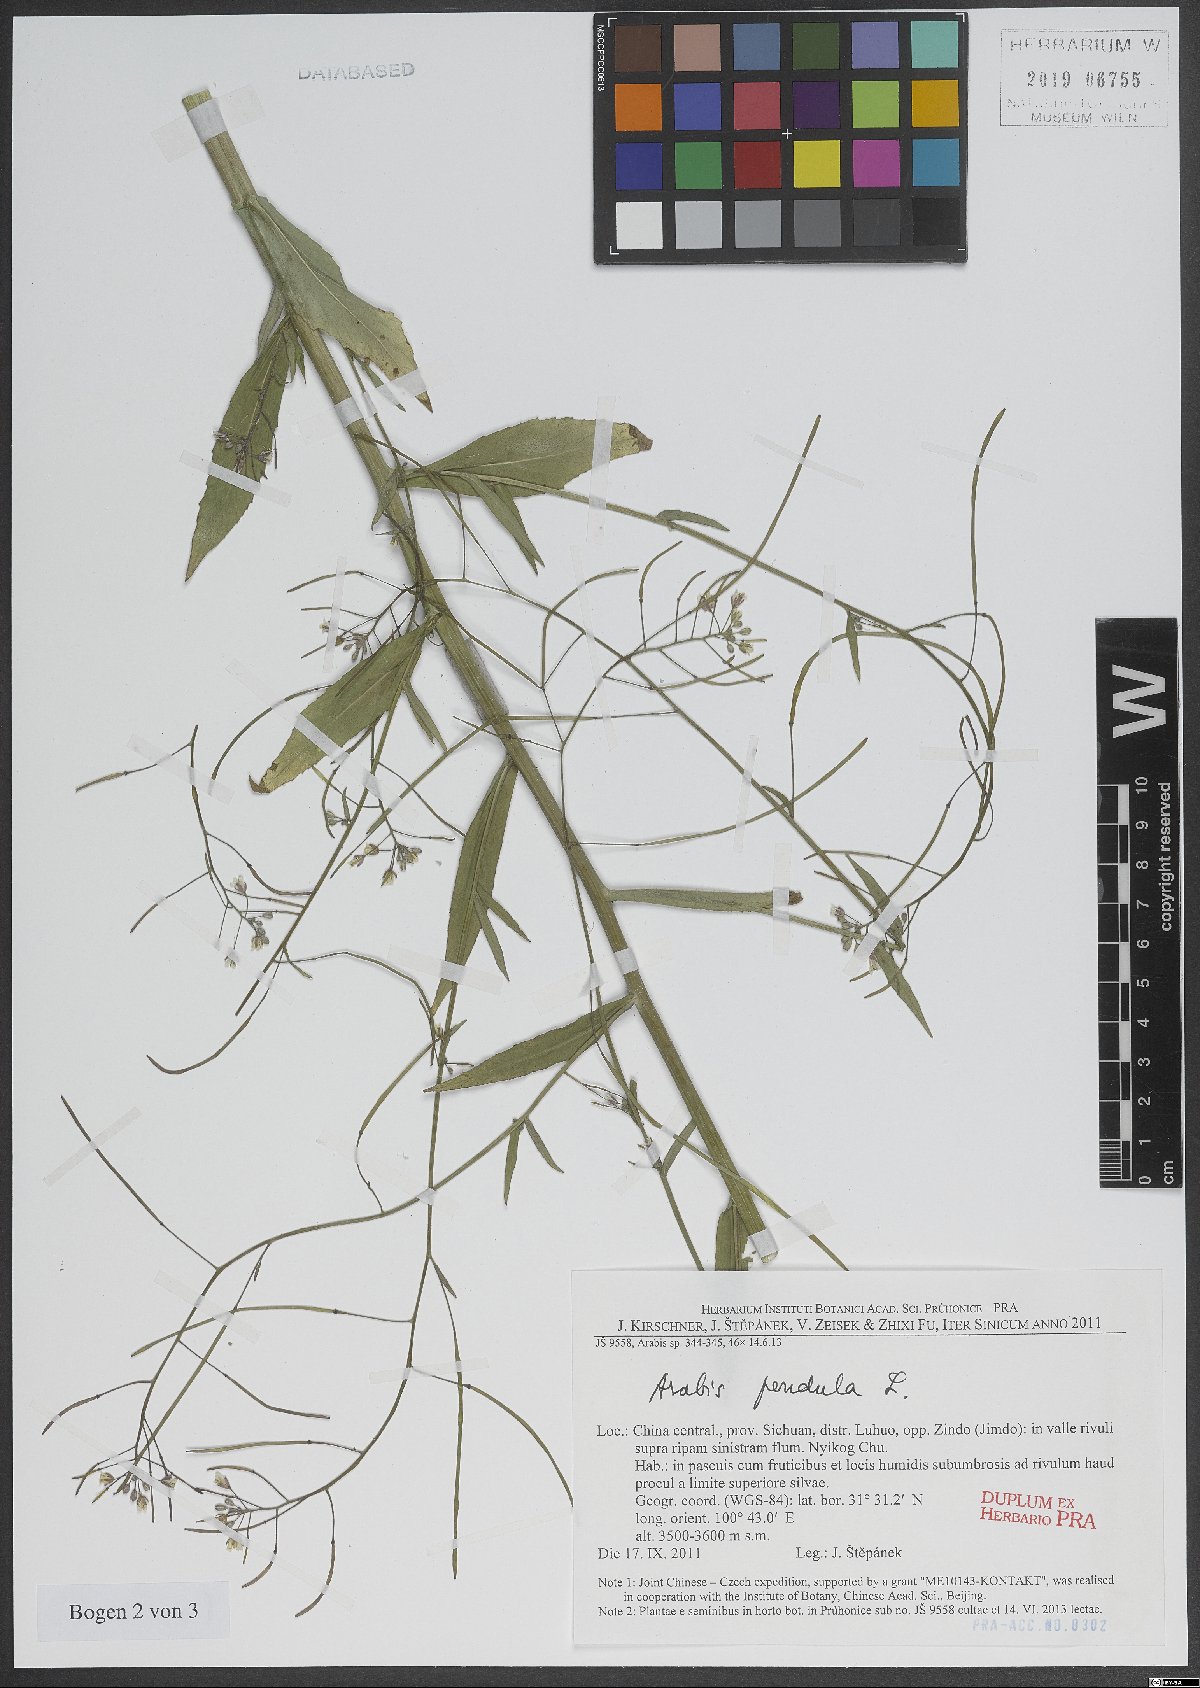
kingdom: Plantae
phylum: Tracheophyta
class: Magnoliopsida
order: Brassicales
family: Brassicaceae
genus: Catolobus
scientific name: Catolobus pendulus
